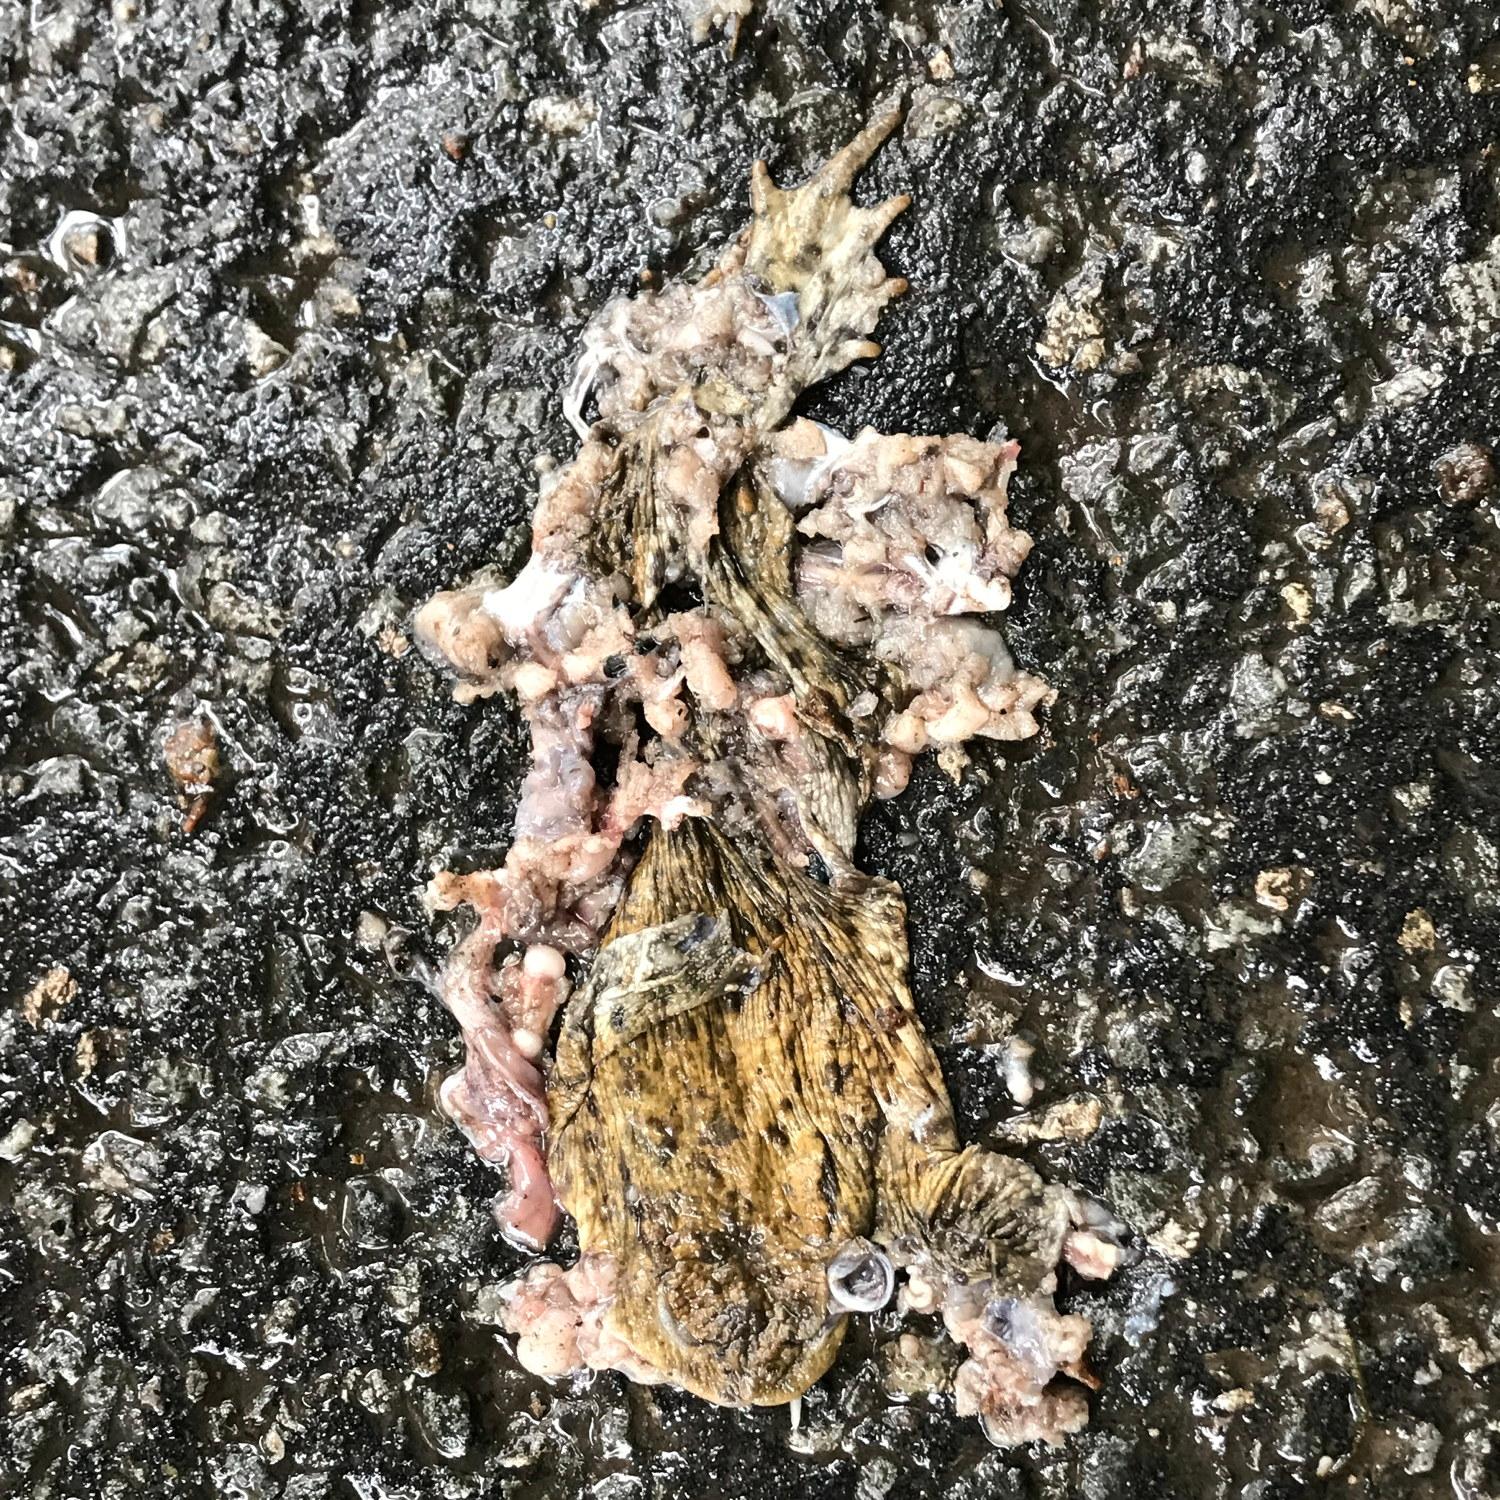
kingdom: Animalia
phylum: Chordata
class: Amphibia
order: Anura
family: Bufonidae
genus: Bufo
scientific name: Bufo bufo
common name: Common toad
